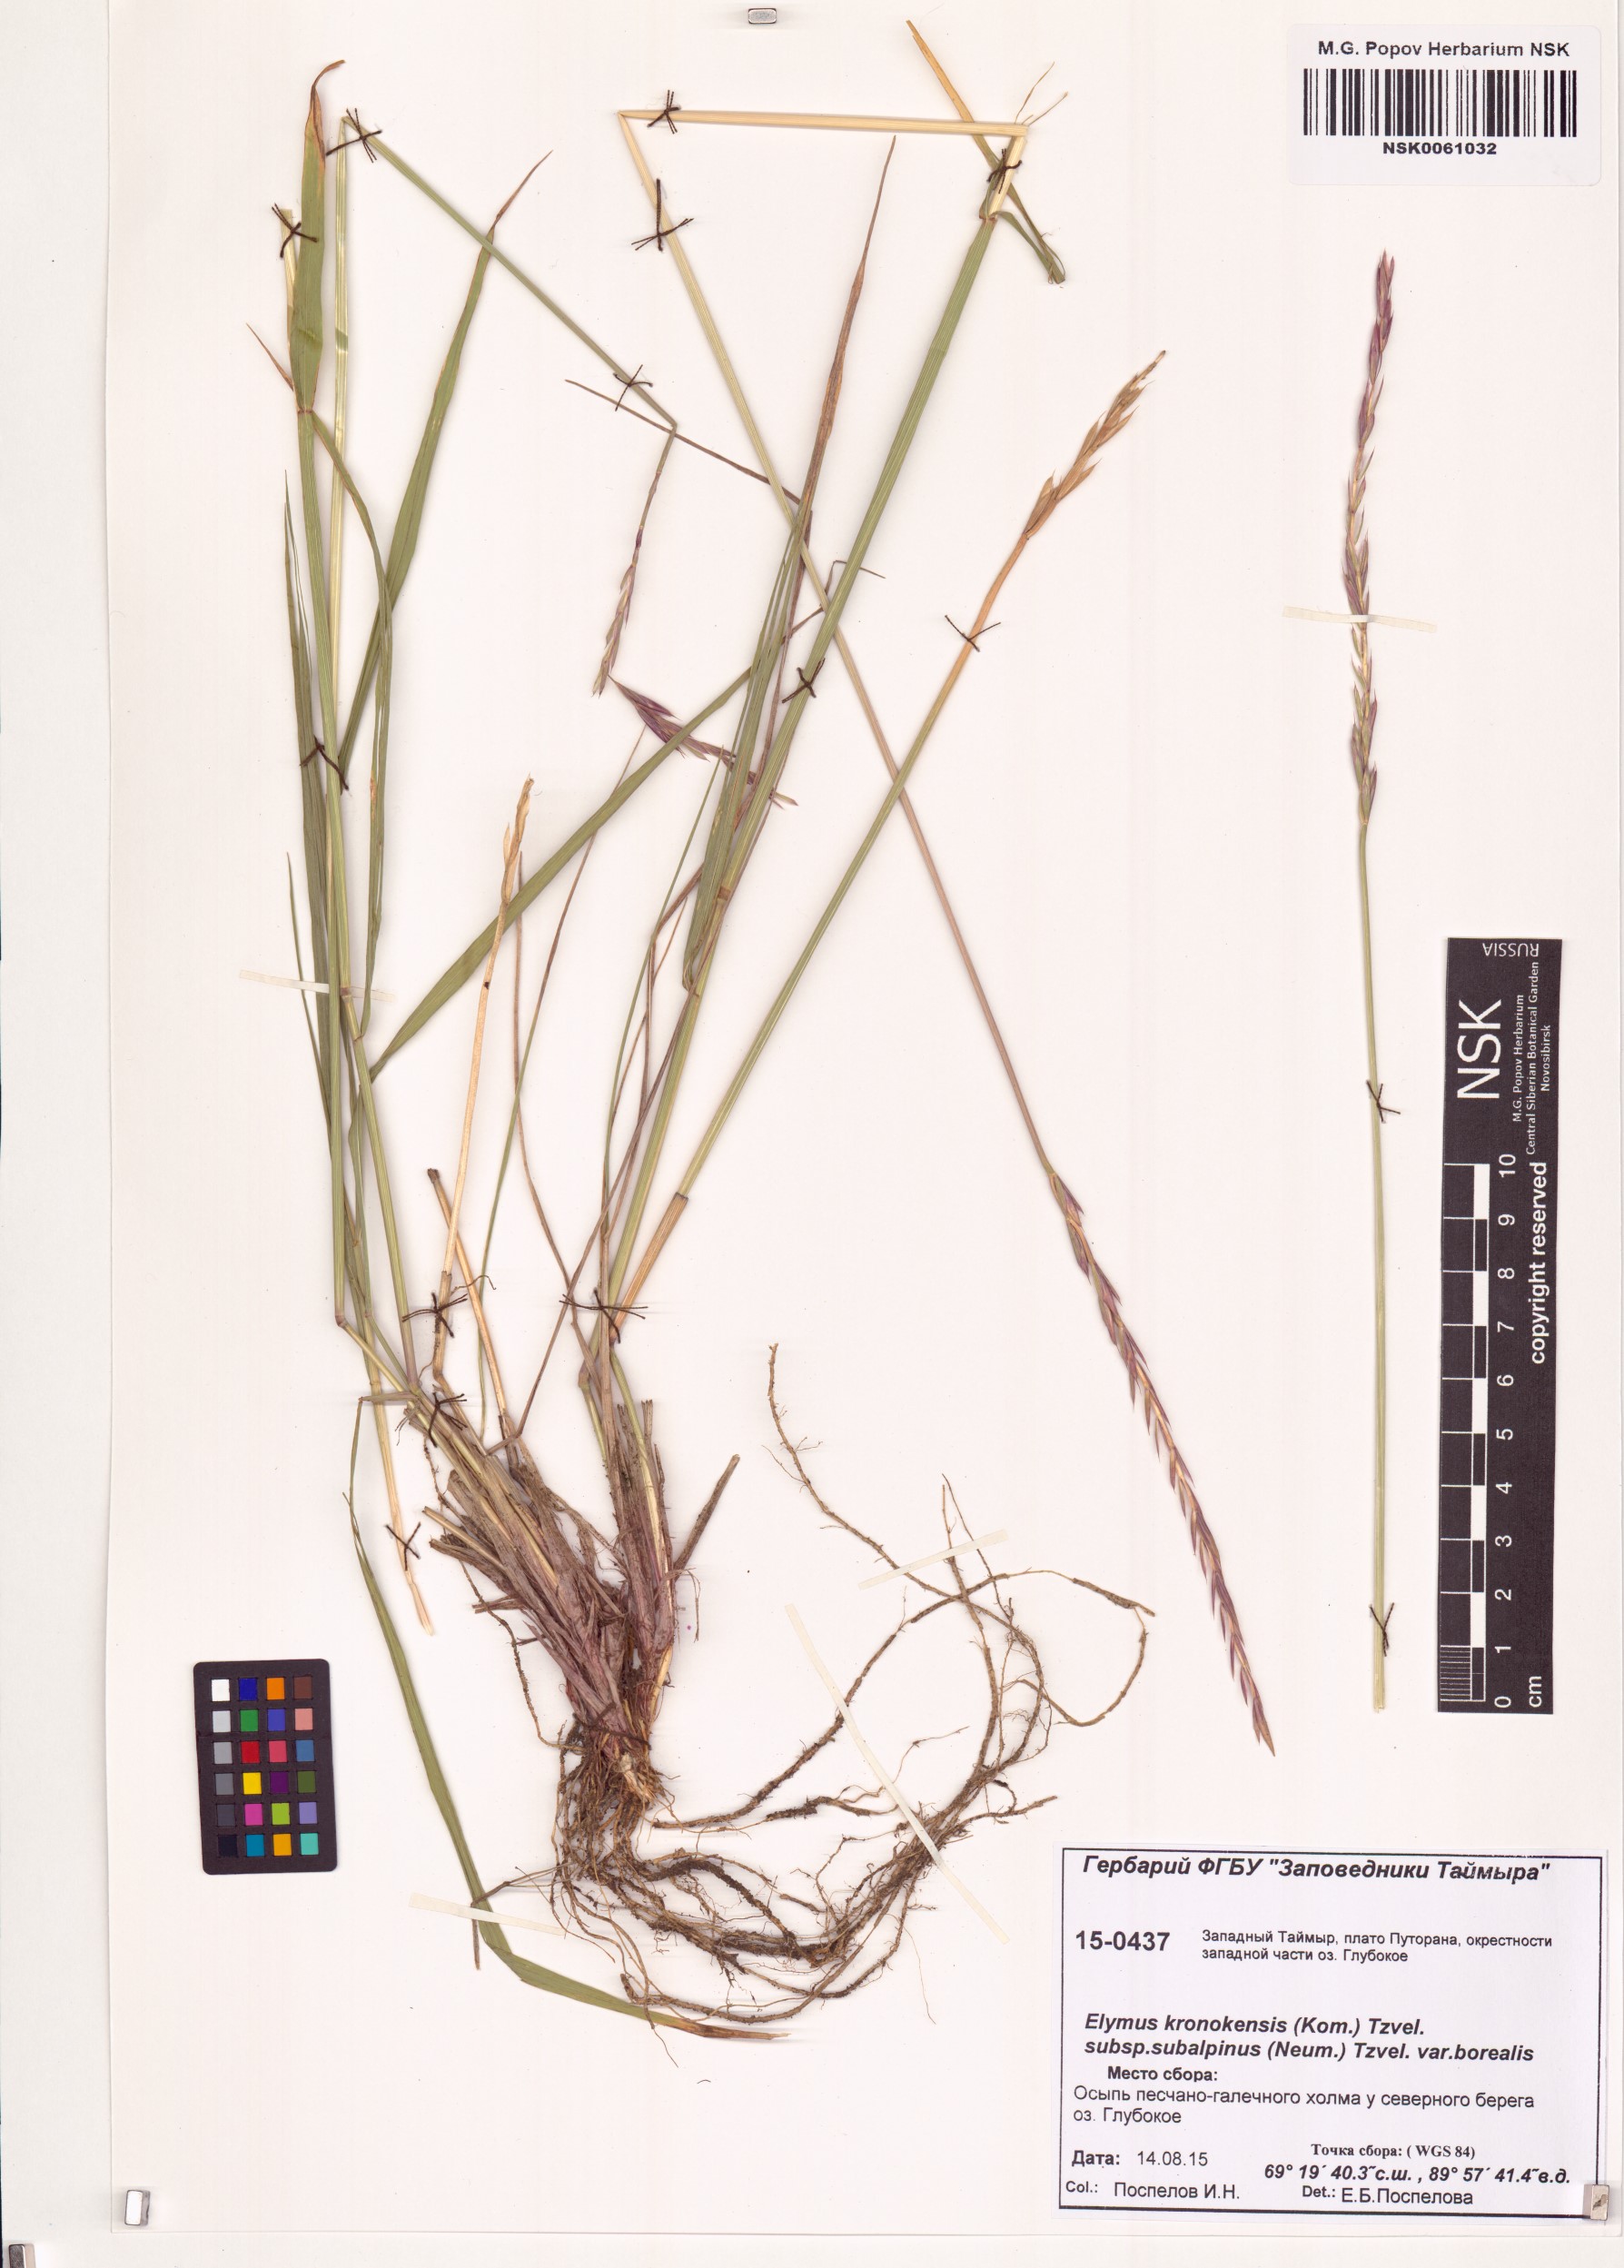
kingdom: Plantae
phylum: Tracheophyta
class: Liliopsida
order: Poales
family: Poaceae
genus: Elymus
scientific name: Elymus macrourus
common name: Northern wheatgrass
